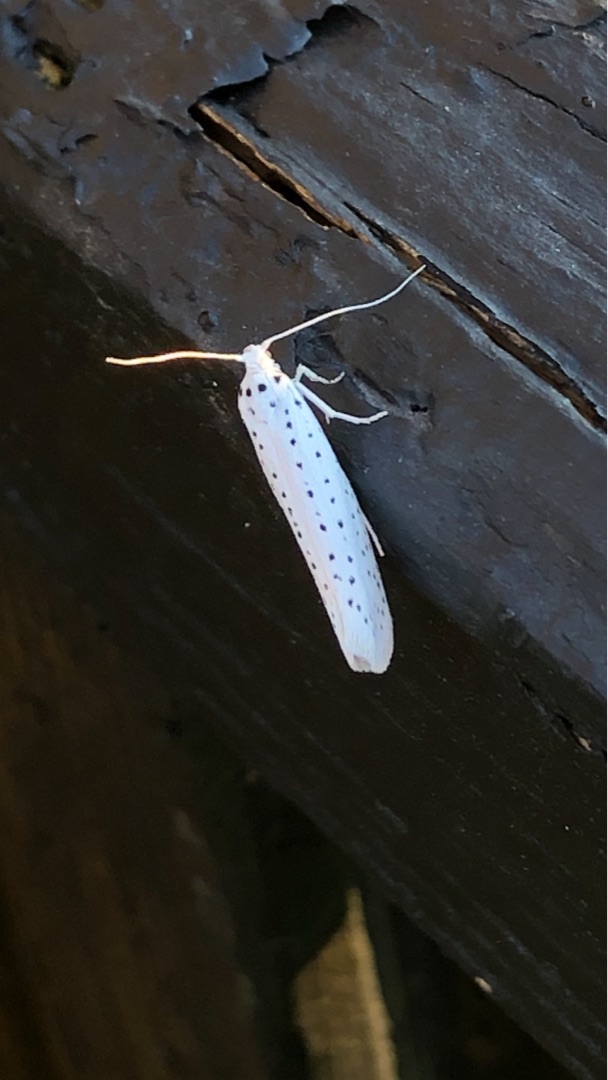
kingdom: Animalia
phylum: Arthropoda
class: Insecta
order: Lepidoptera
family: Yponomeutidae
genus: Yponomeuta
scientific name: Yponomeuta evonymella
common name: Hægspindemøl
